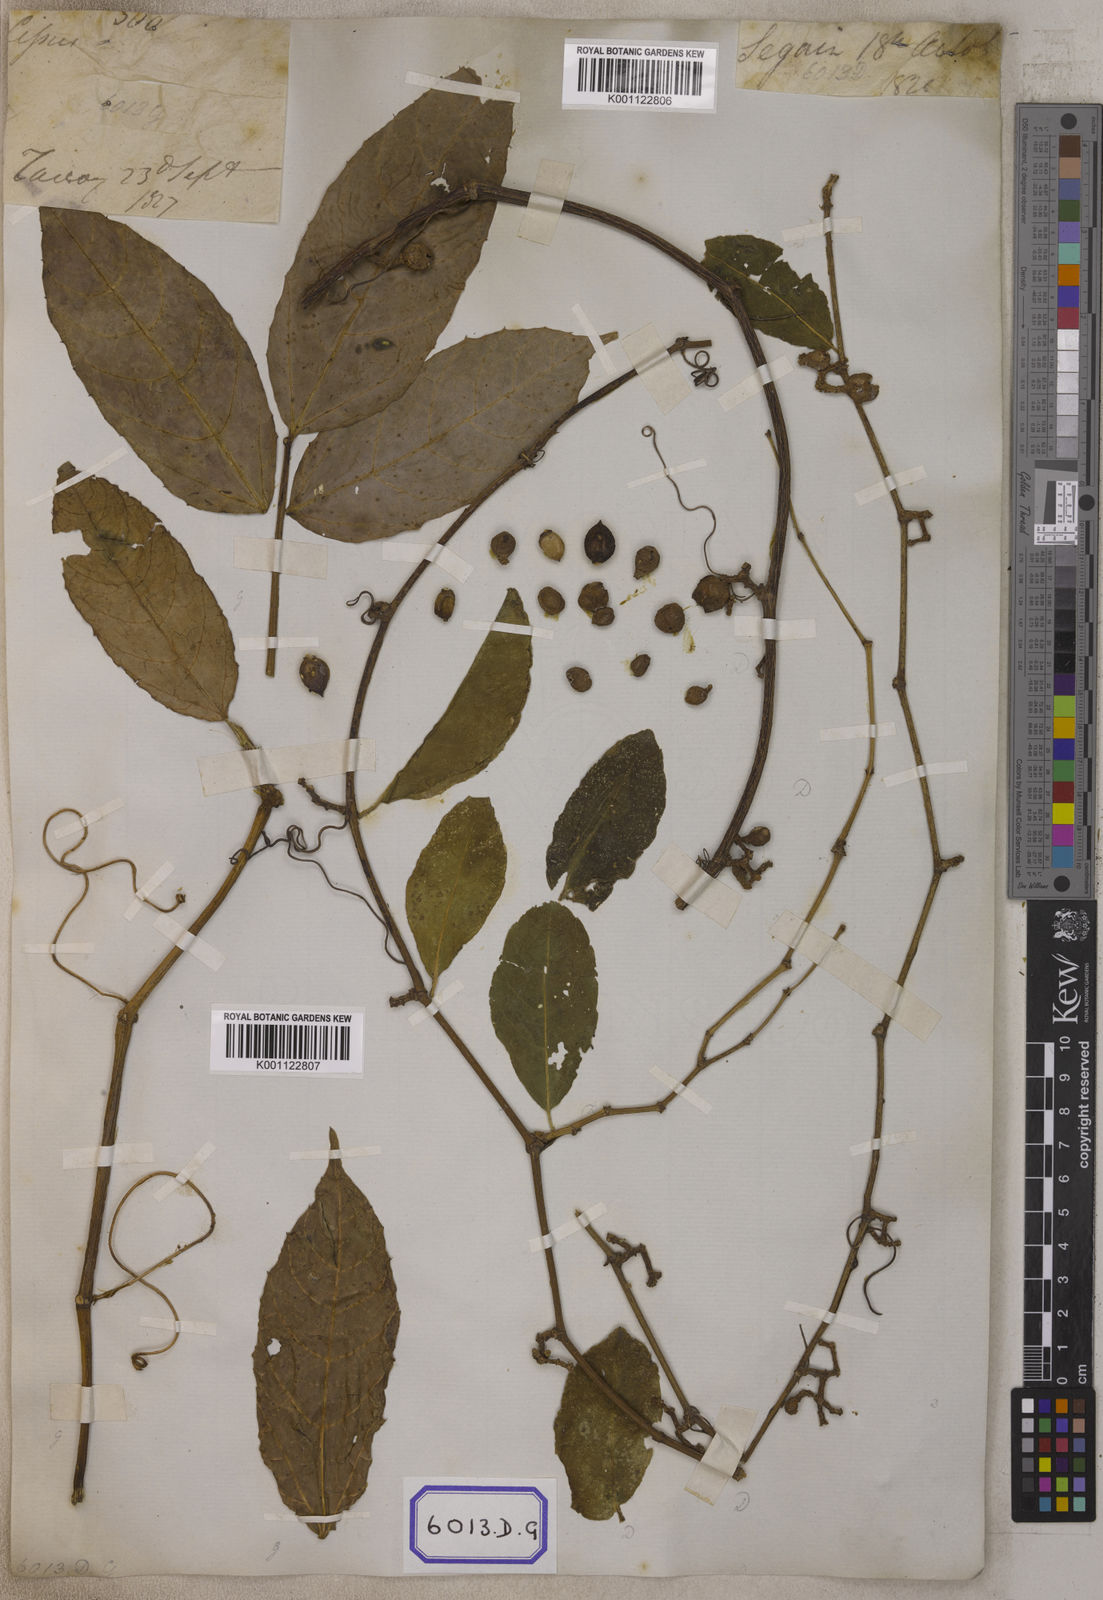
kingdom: Plantae
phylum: Tracheophyta
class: Magnoliopsida
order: Vitales
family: Vitaceae
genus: Vitis
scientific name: Vitis
